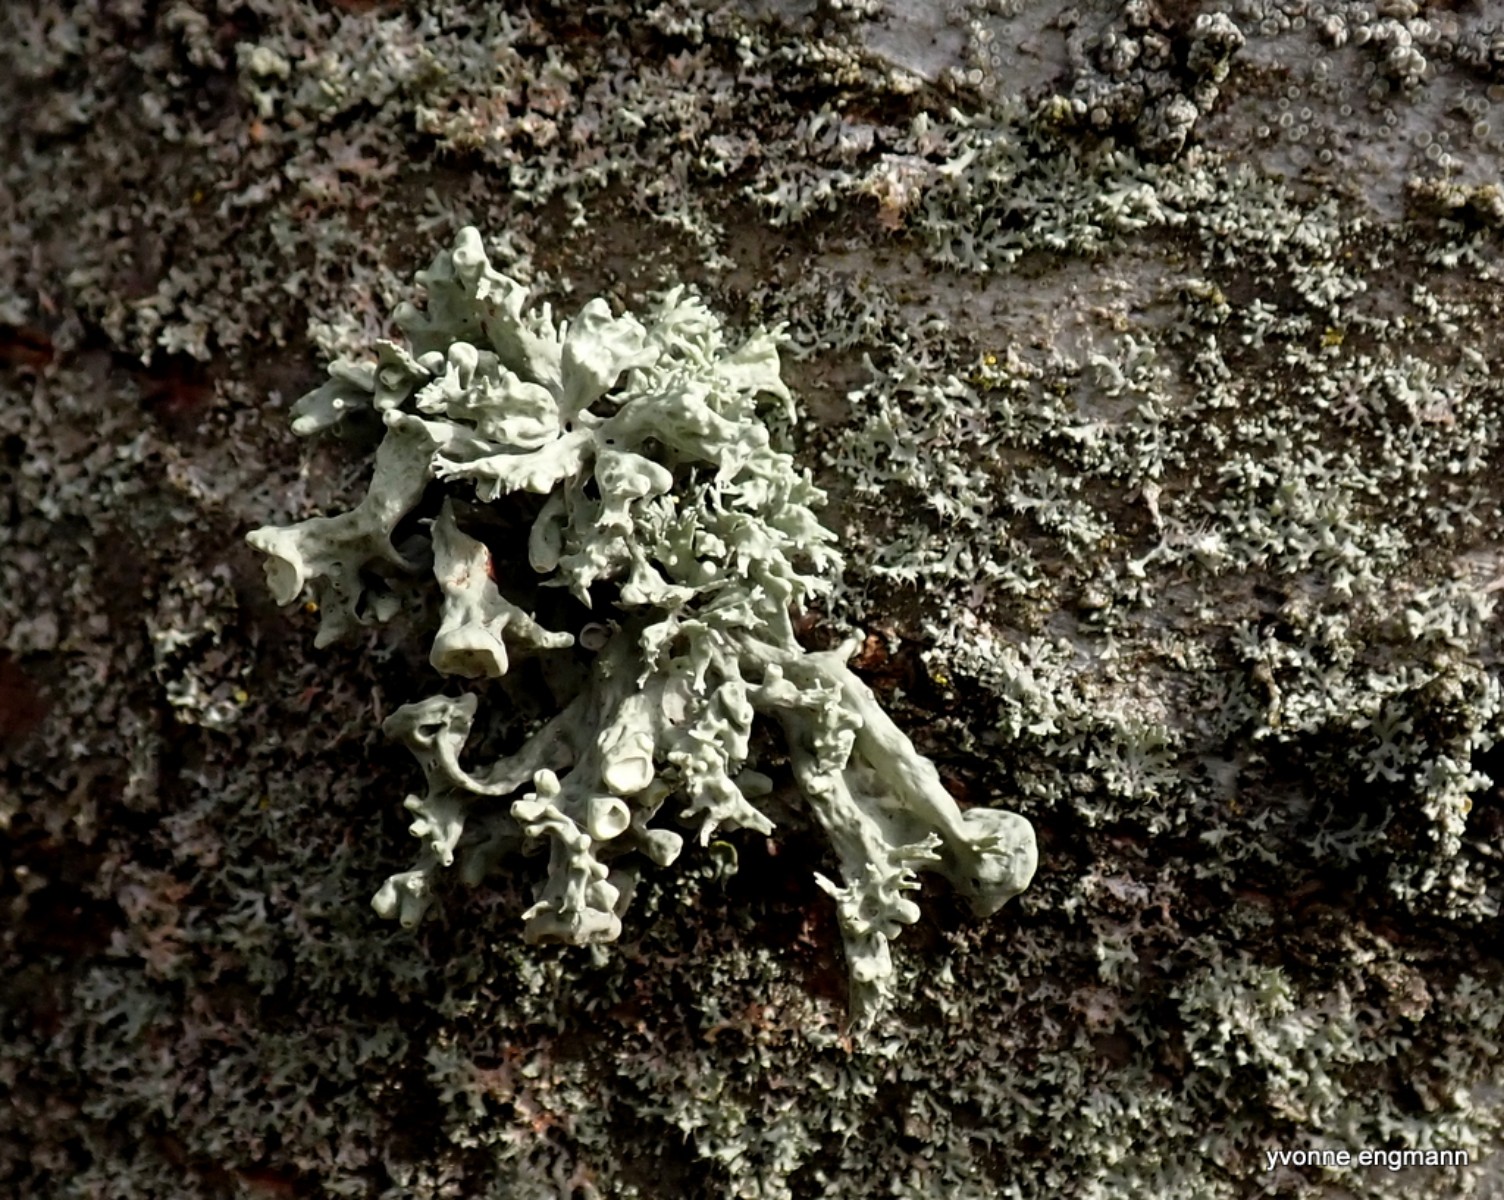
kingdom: Fungi
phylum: Ascomycota
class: Lecanoromycetes
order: Lecanorales
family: Ramalinaceae
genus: Ramalina
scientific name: Ramalina fastigiata
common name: tue-grenlav
